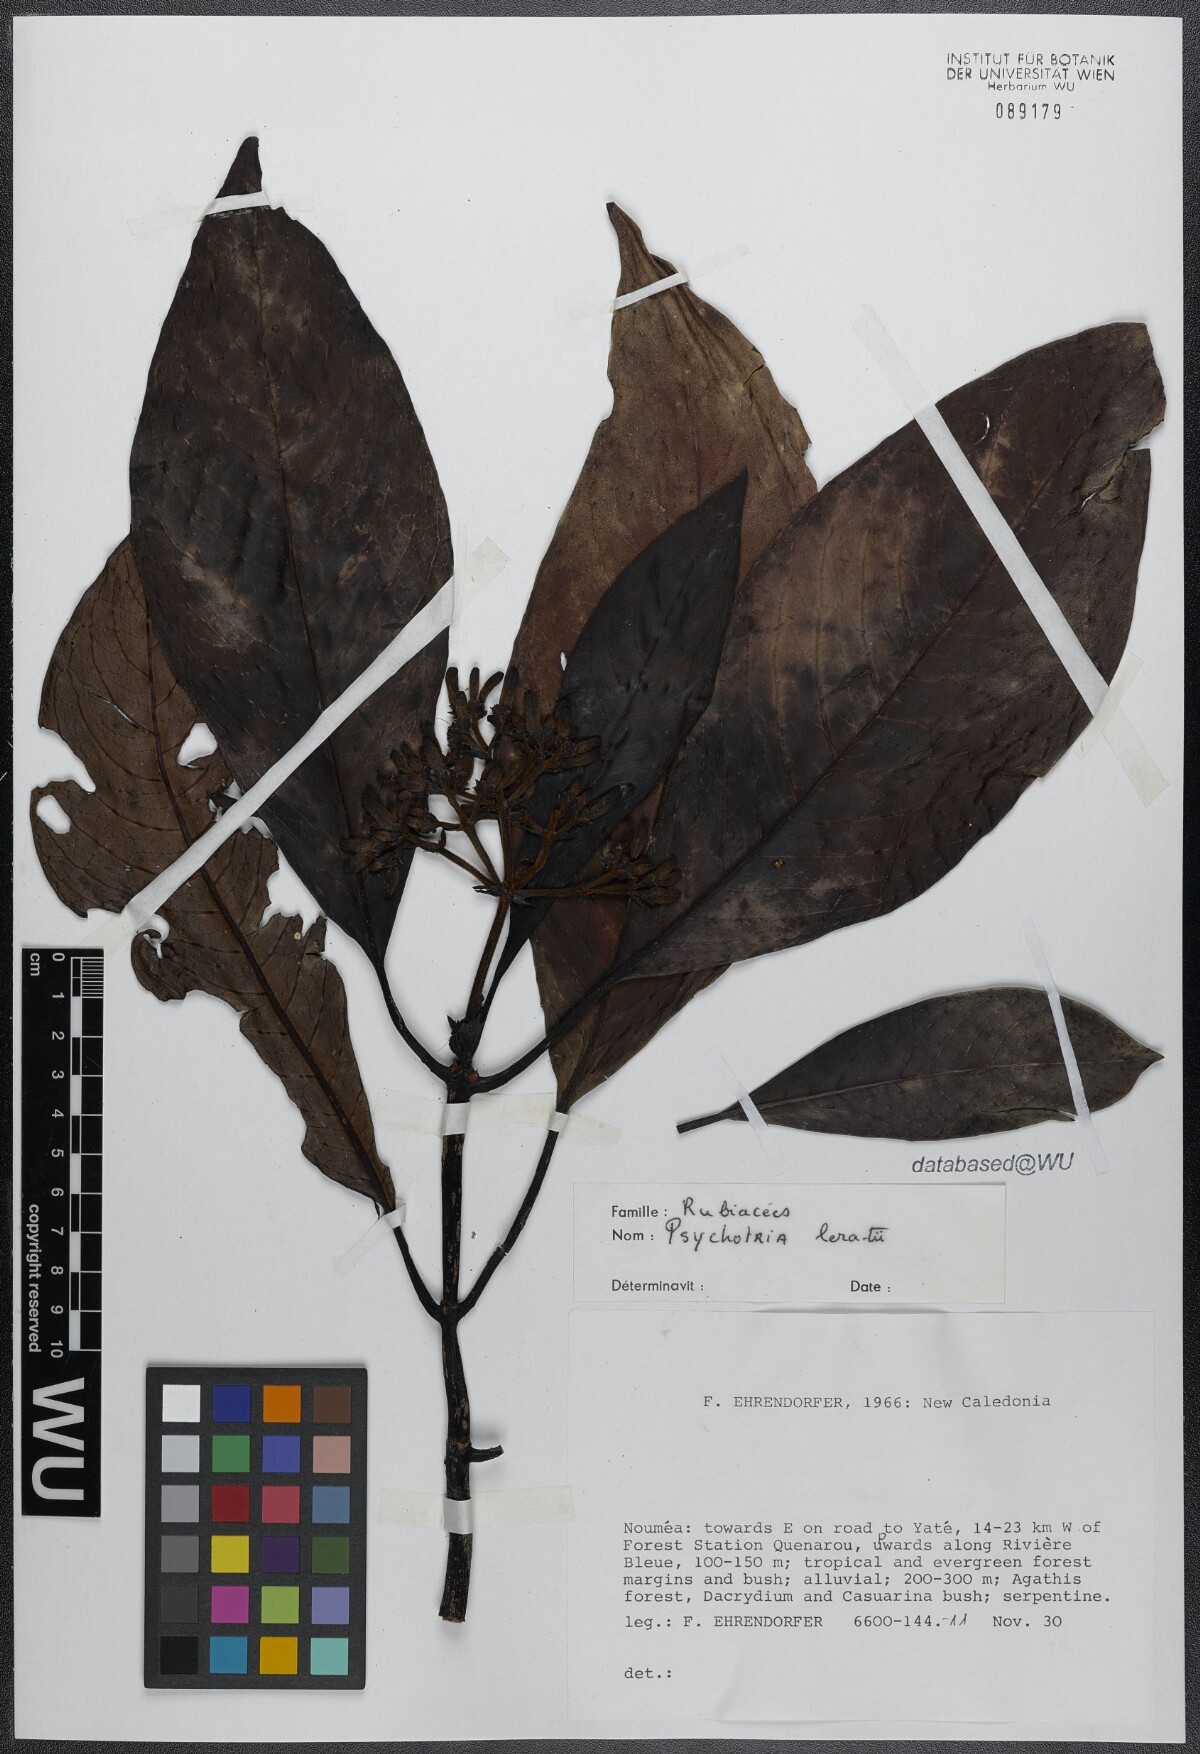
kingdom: Plantae
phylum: Tracheophyta
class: Magnoliopsida
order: Gentianales
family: Rubiaceae
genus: Psychotria
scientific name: Psychotria leratii
